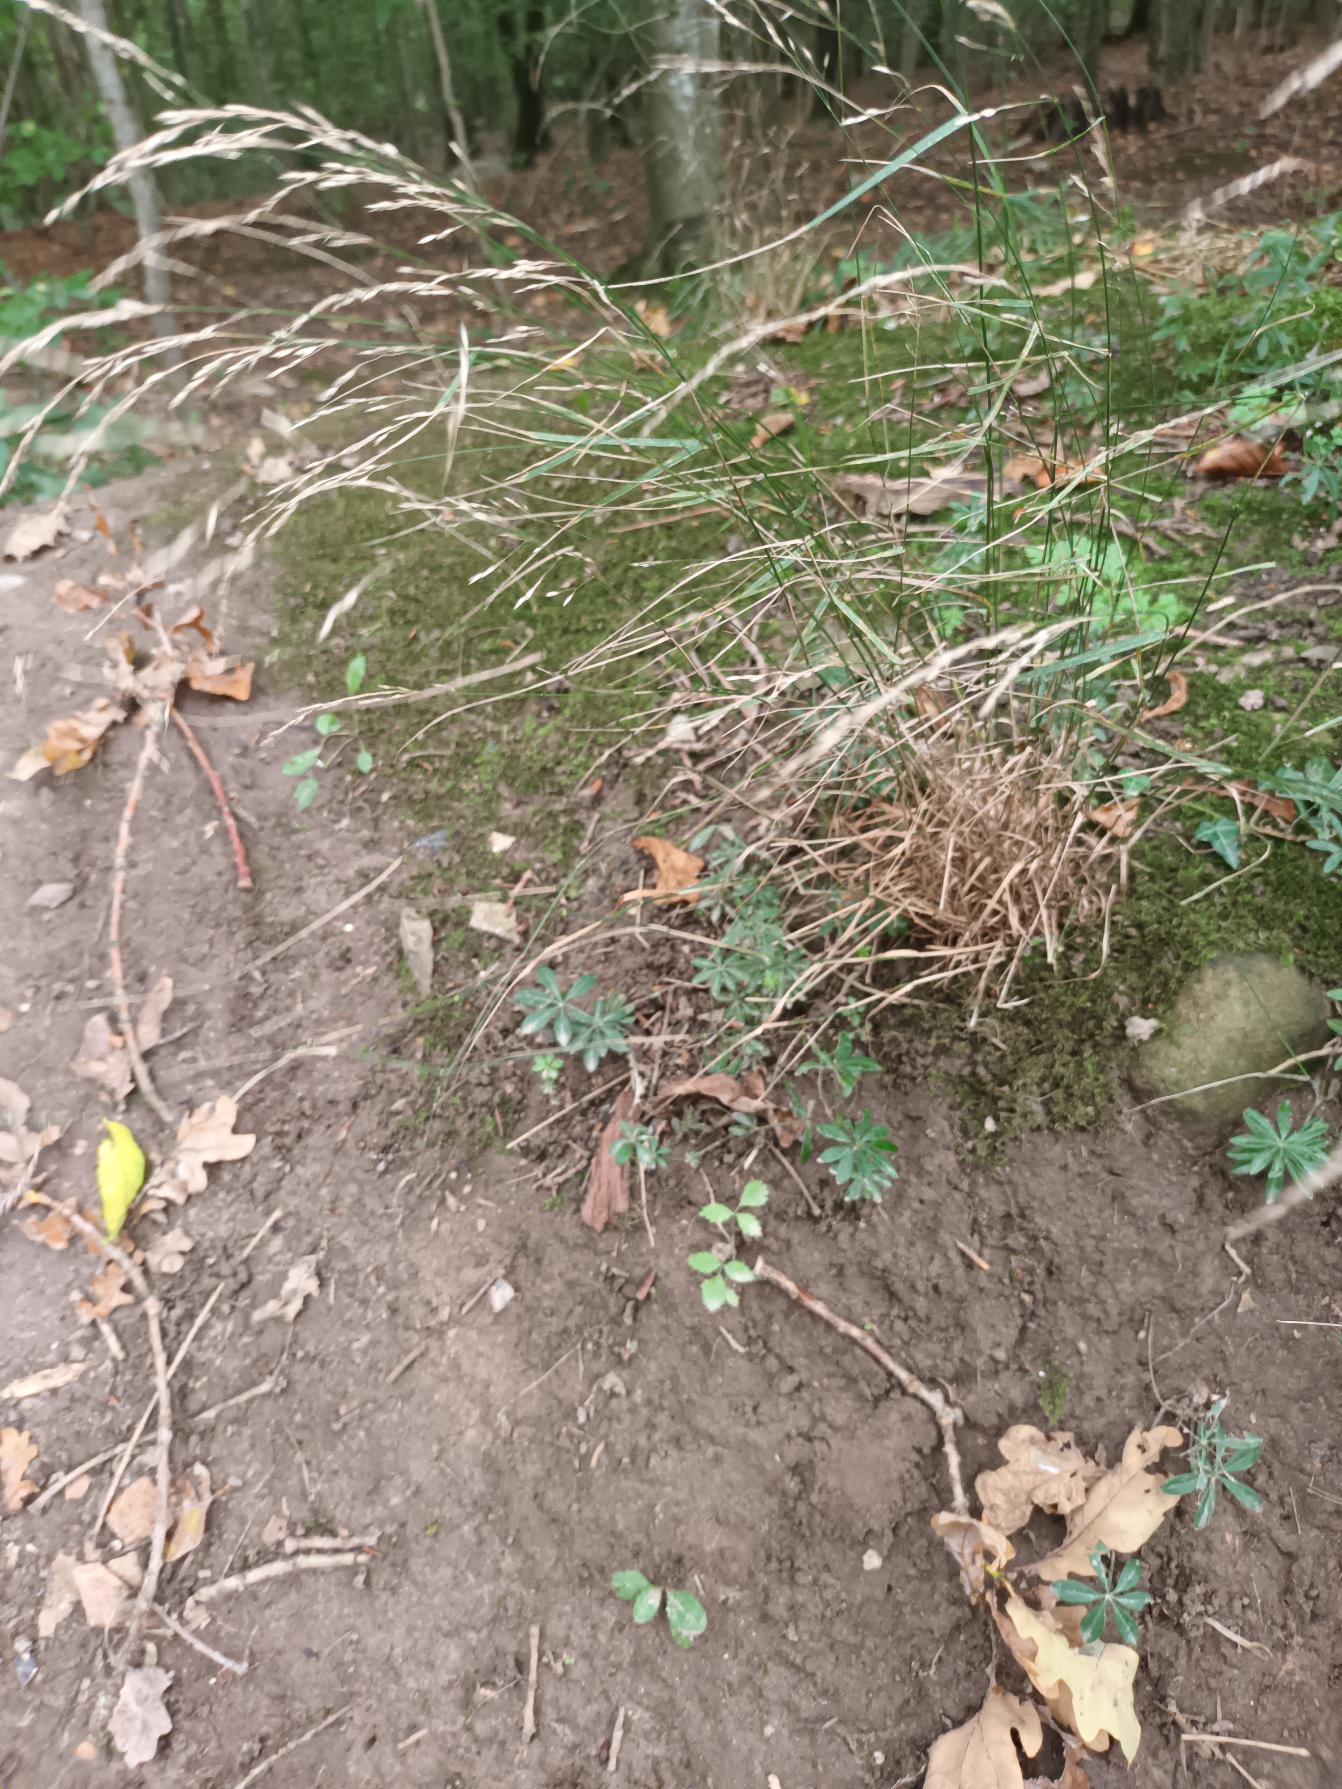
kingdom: Plantae
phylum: Tracheophyta
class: Liliopsida
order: Poales
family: Poaceae
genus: Poa
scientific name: Poa nemoralis
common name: Lund-rapgræs
